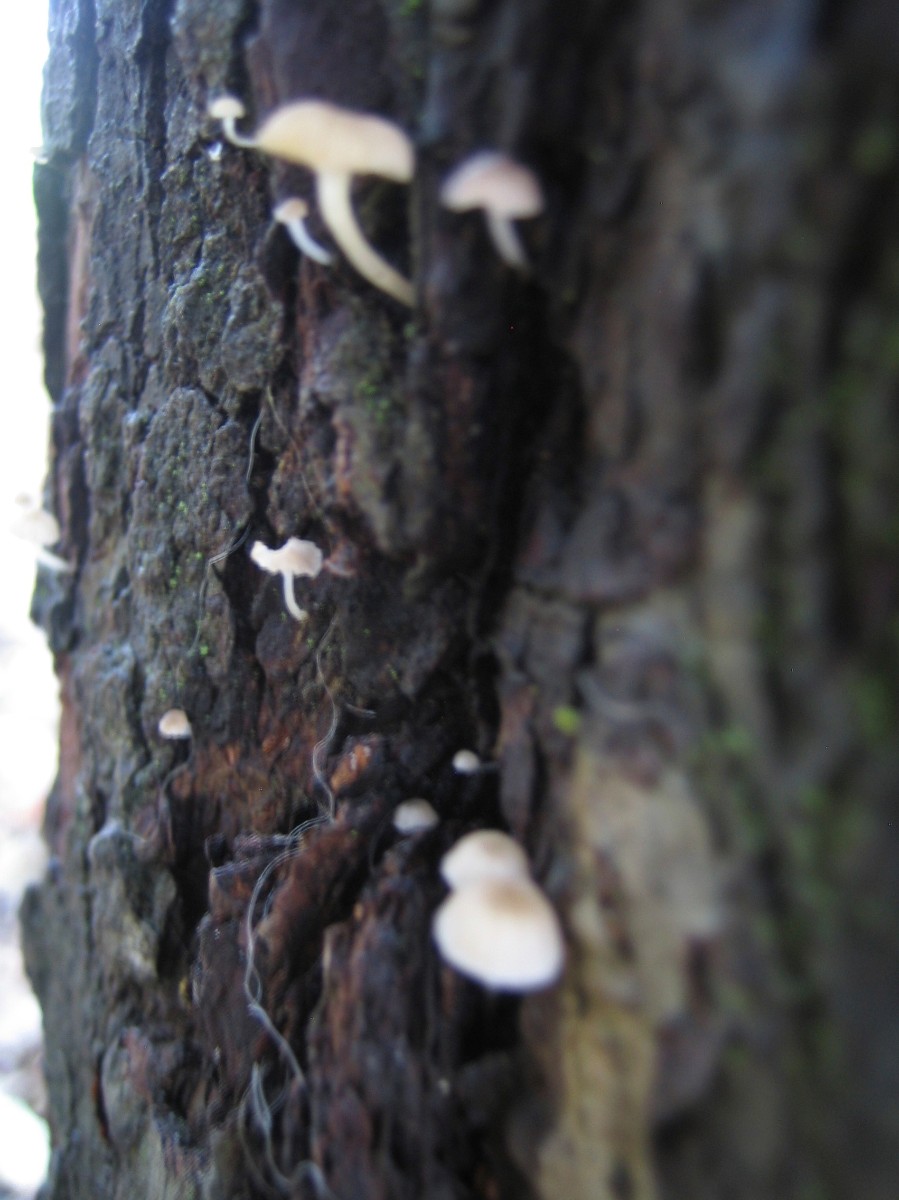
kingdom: Fungi
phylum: Basidiomycota
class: Agaricomycetes
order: Agaricales
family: Porotheleaceae
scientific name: Porotheleaceae
